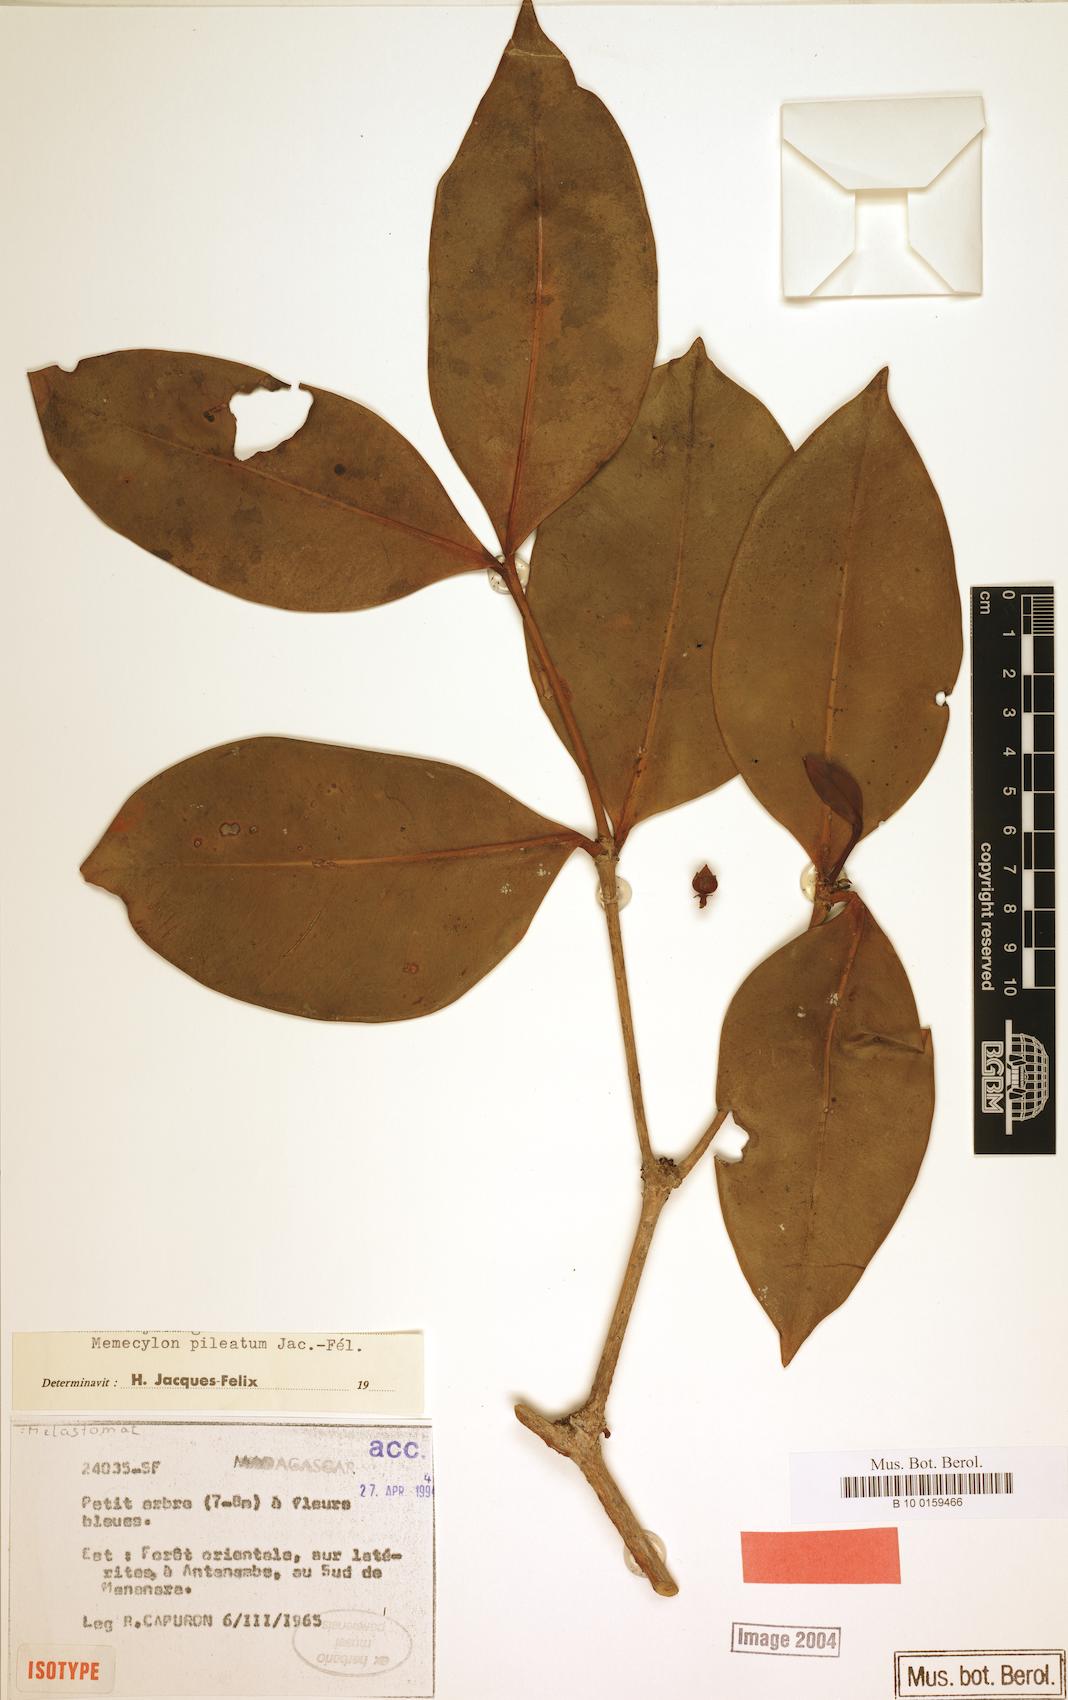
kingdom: Plantae
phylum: Tracheophyta
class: Magnoliopsida
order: Myrtales
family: Melastomataceae
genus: Memecylon
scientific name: Memecylon pileatum
